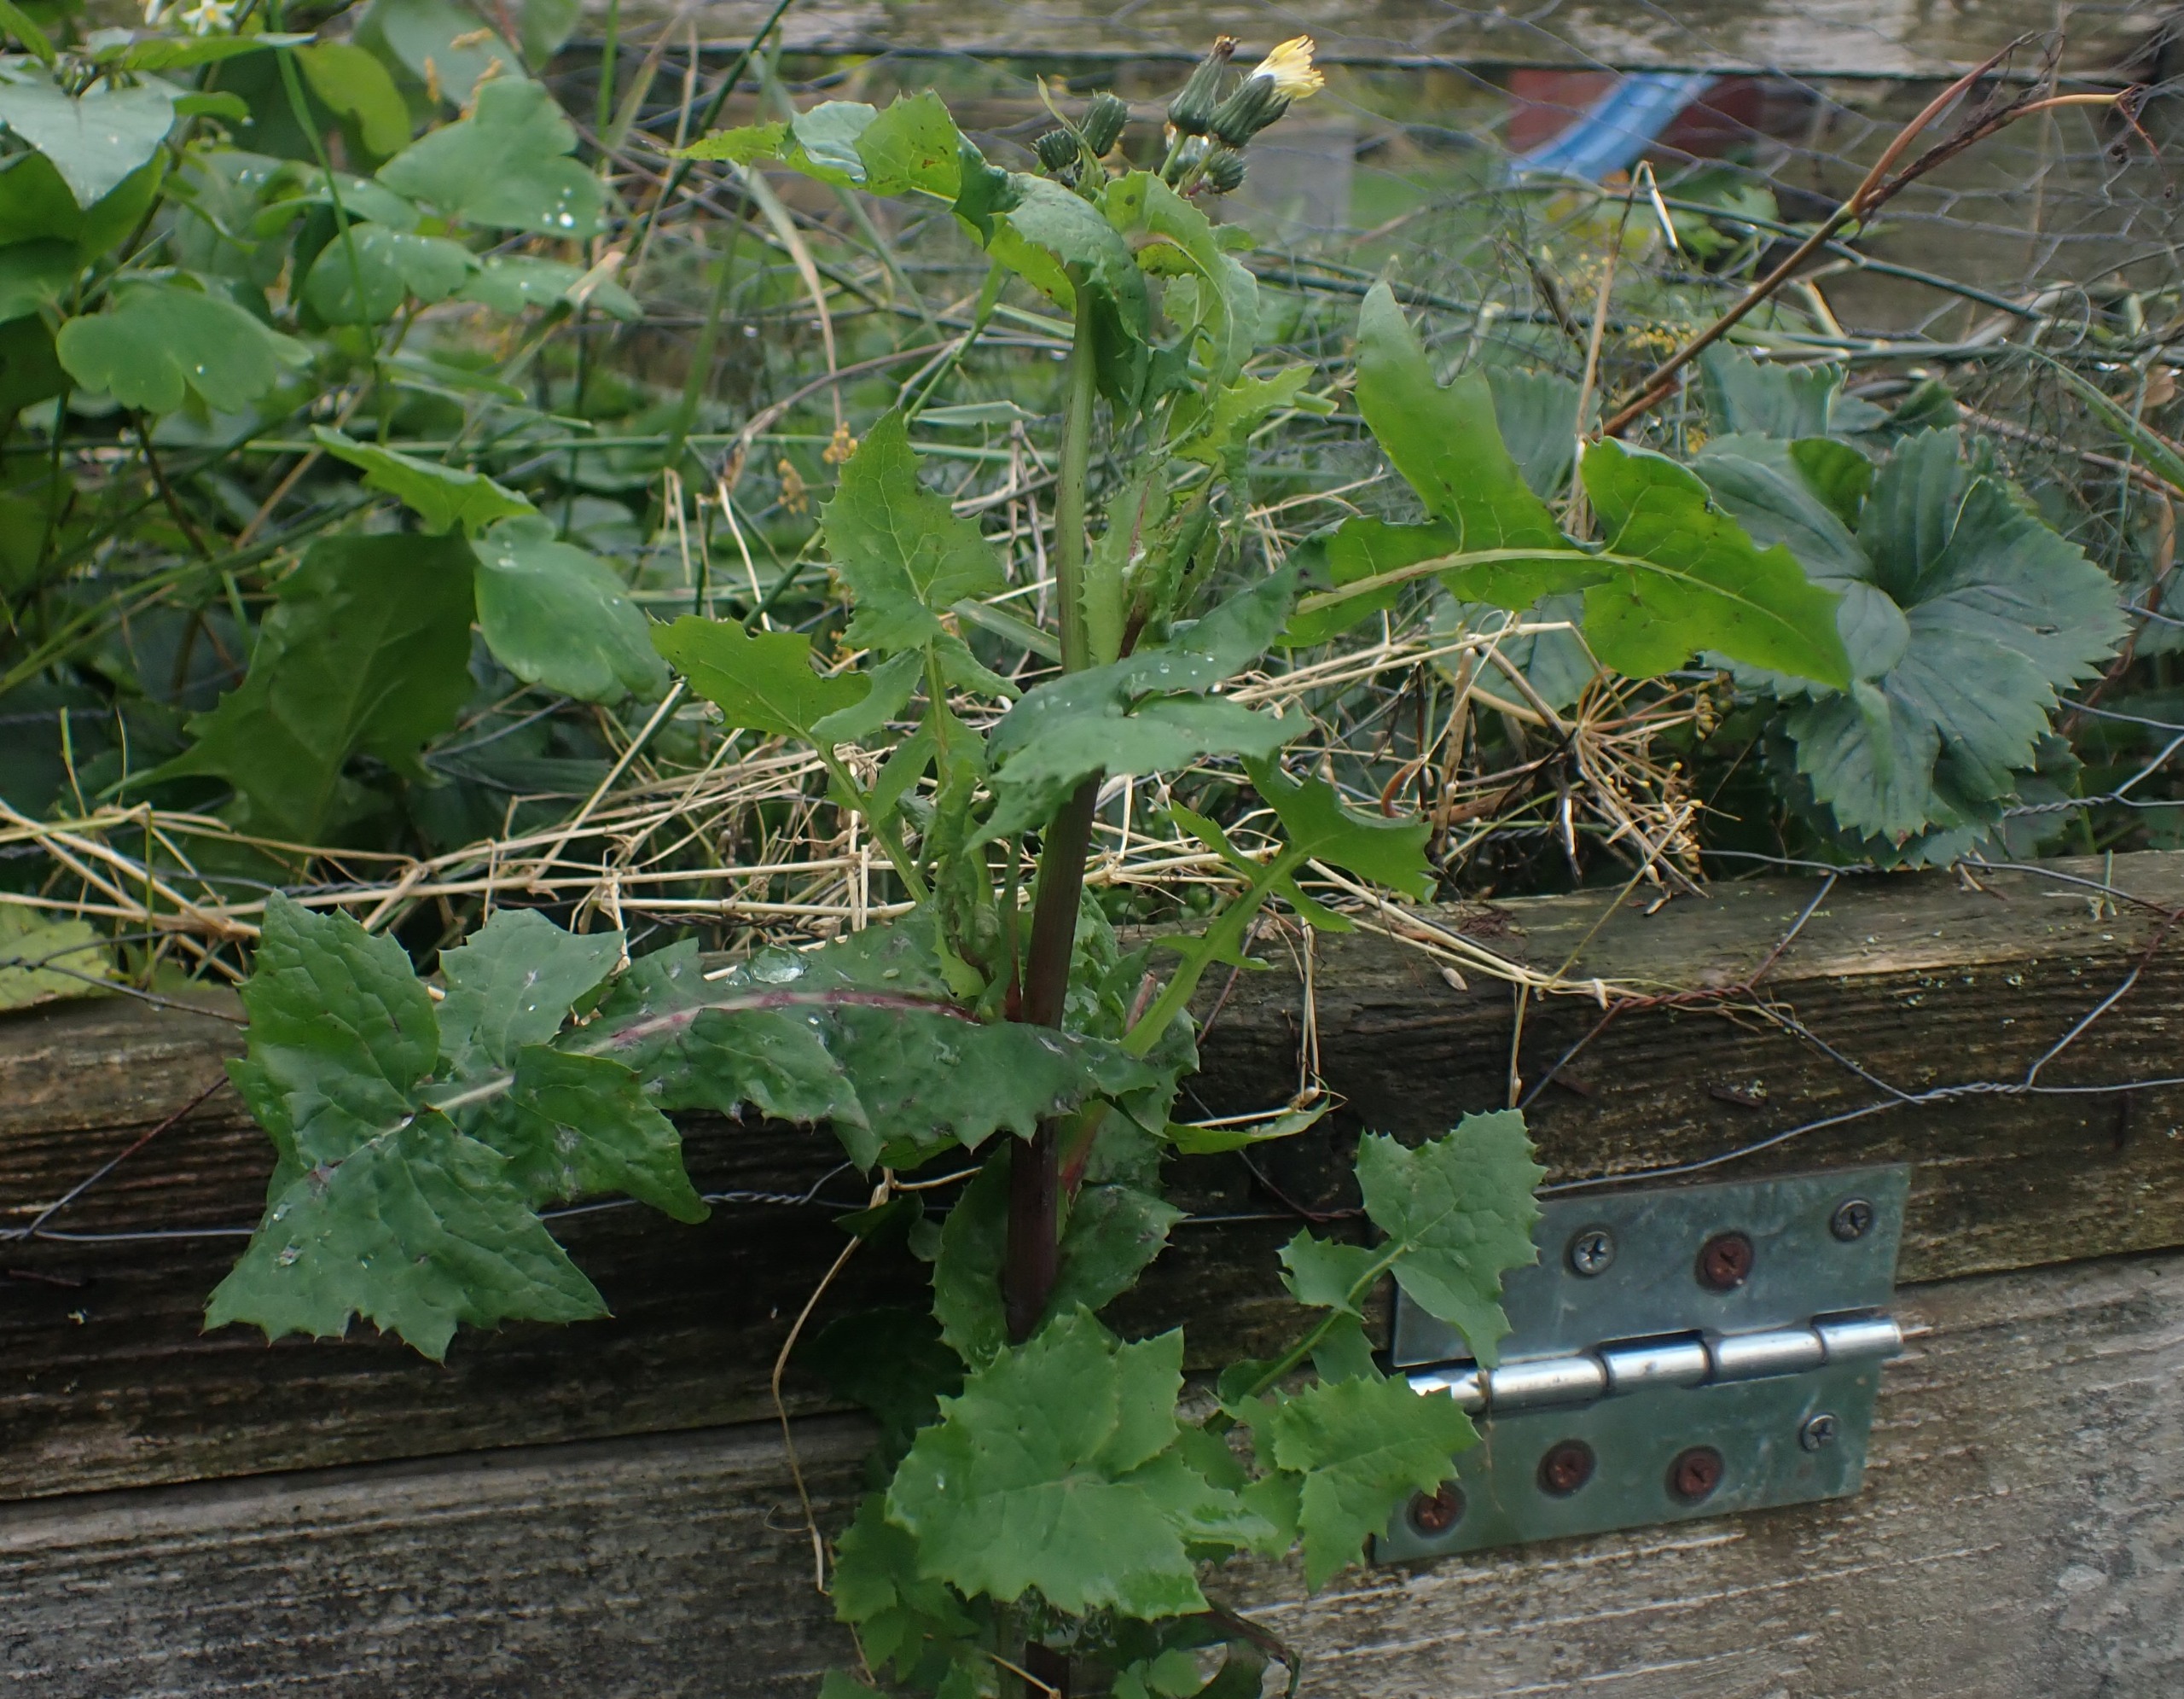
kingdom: Plantae
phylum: Tracheophyta
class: Magnoliopsida
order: Asterales
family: Asteraceae
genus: Sonchus
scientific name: Sonchus oleraceus
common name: Almindelig svinemælk
